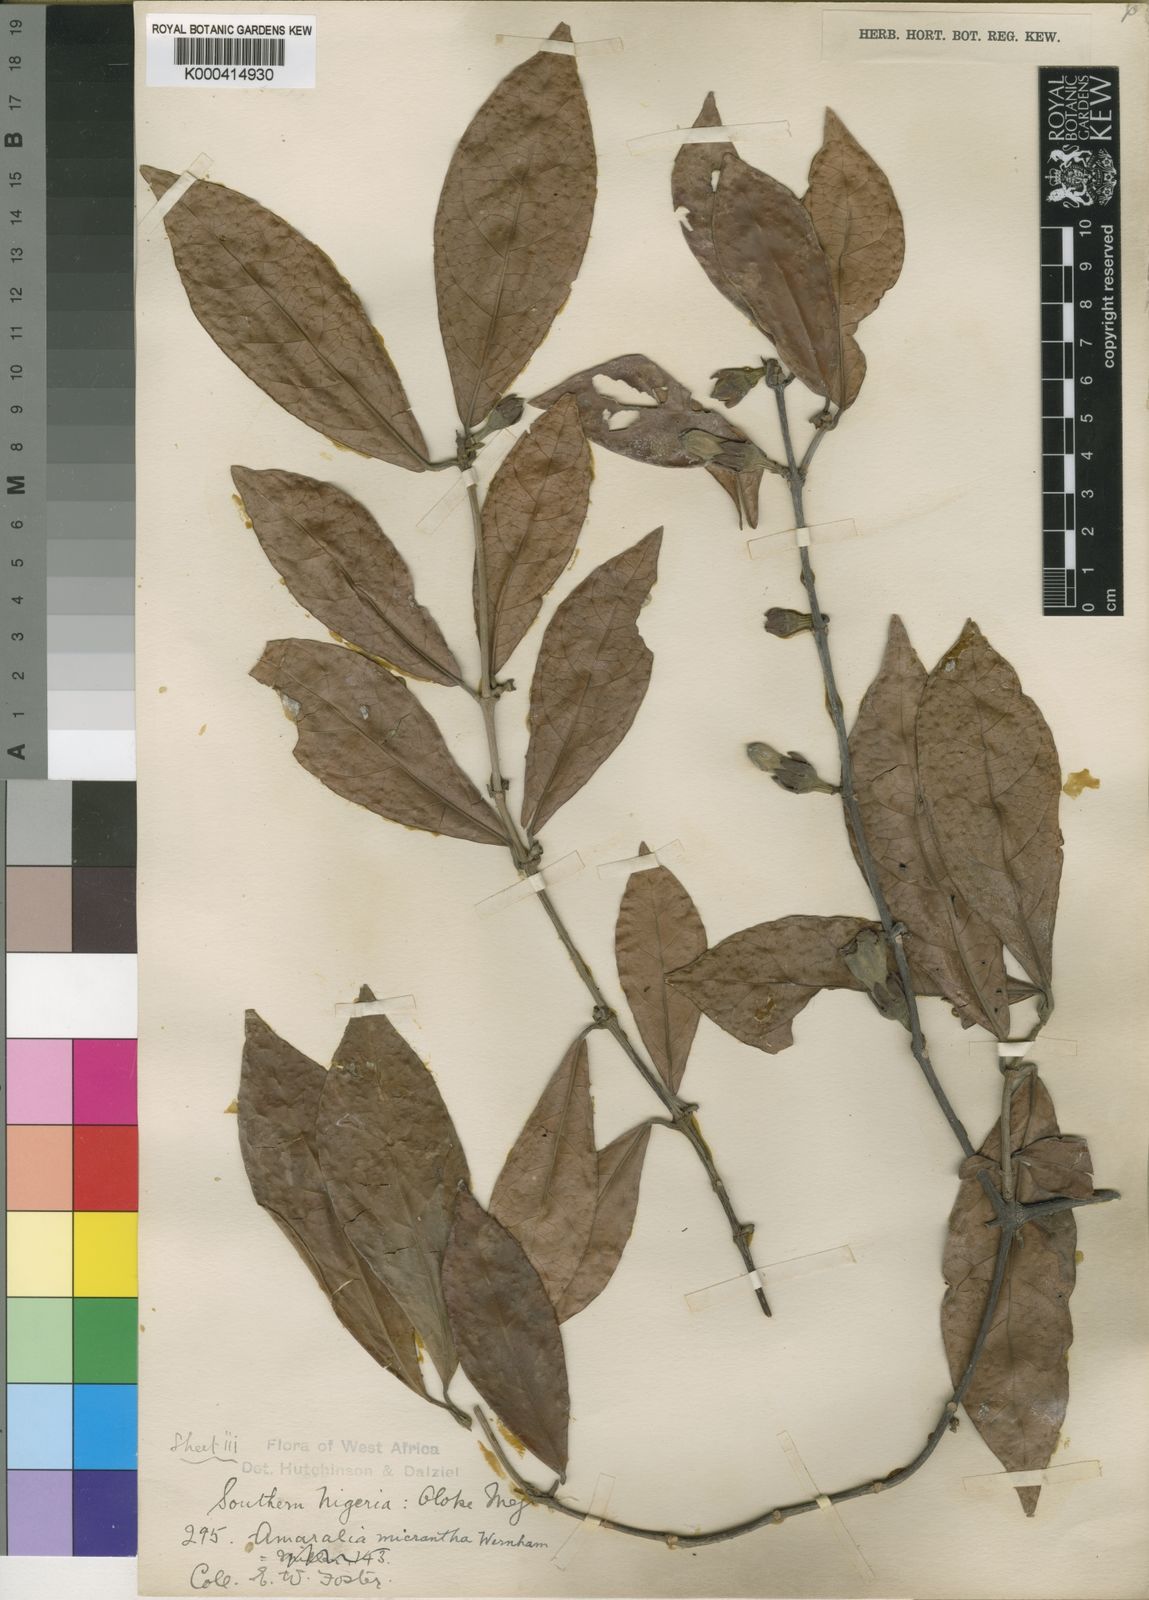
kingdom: Plantae
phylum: Tracheophyta
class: Magnoliopsida
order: Gentianales
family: Rubiaceae
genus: Sherbournia
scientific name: Sherbournia millenii
